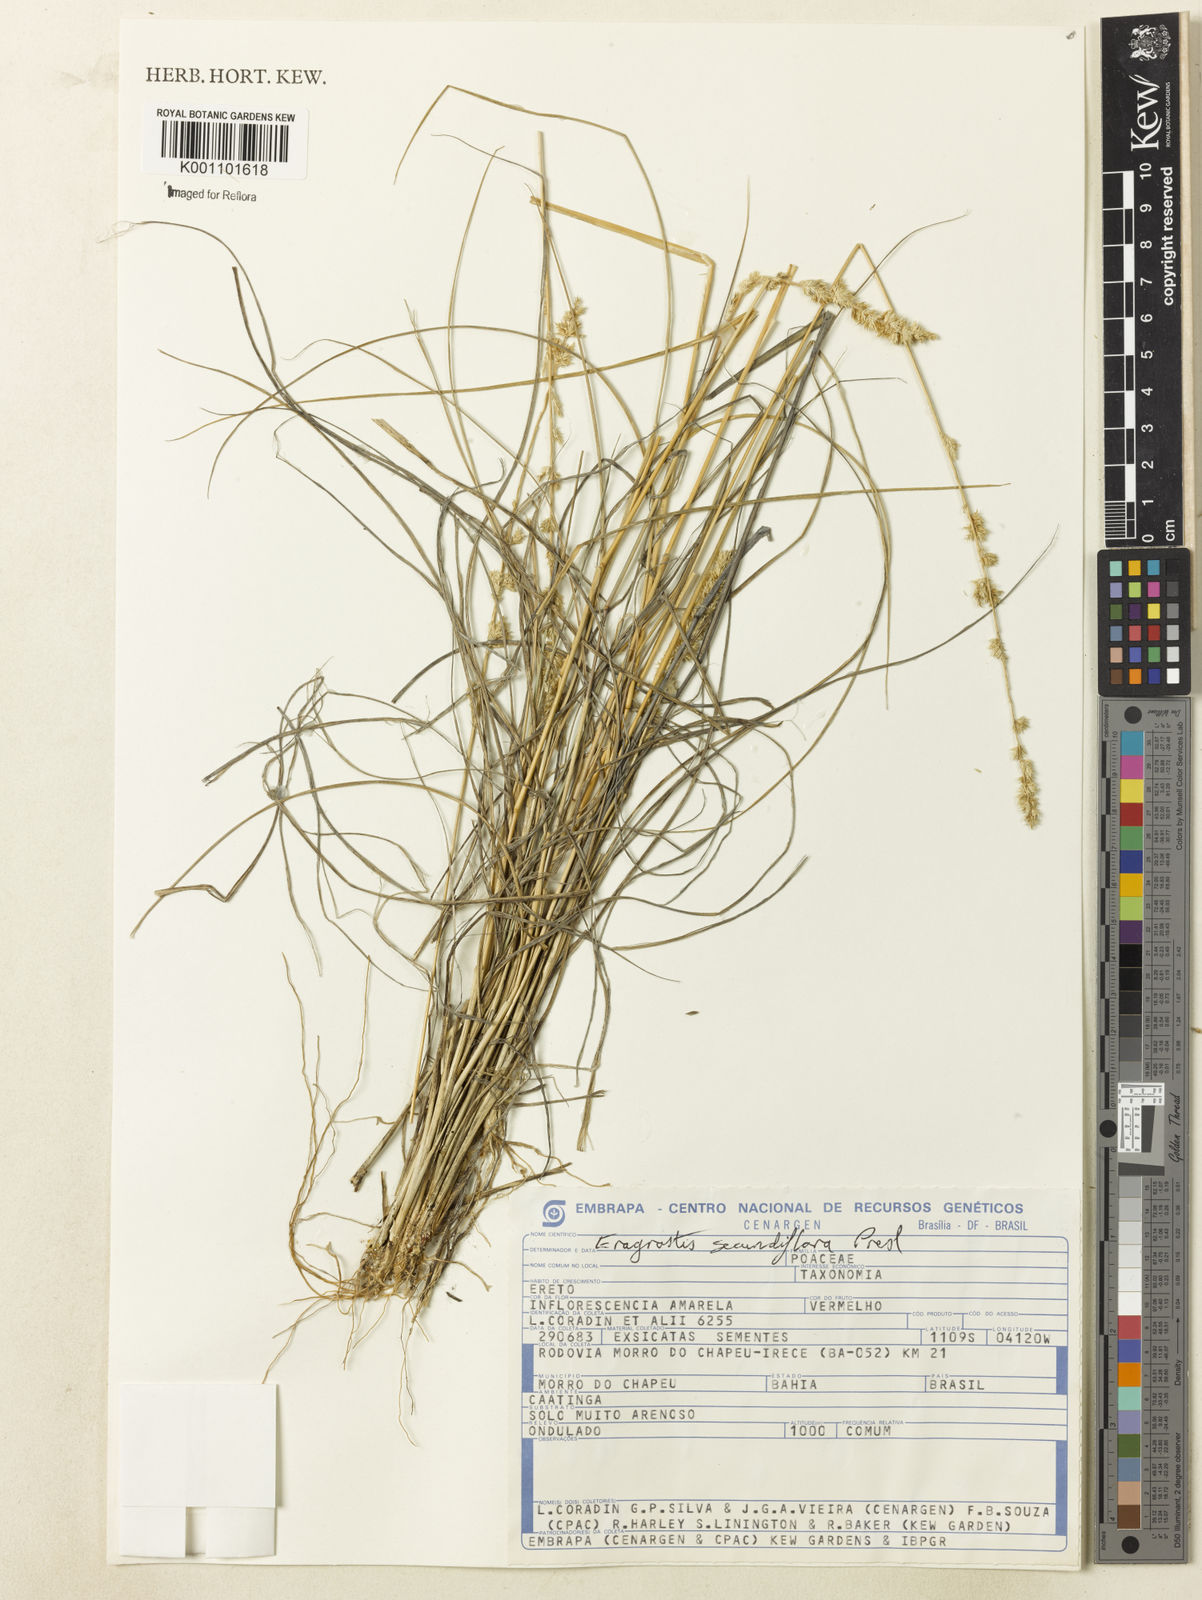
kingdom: Plantae
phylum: Tracheophyta
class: Liliopsida
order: Poales
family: Poaceae
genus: Eragrostis
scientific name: Eragrostis petrensis
